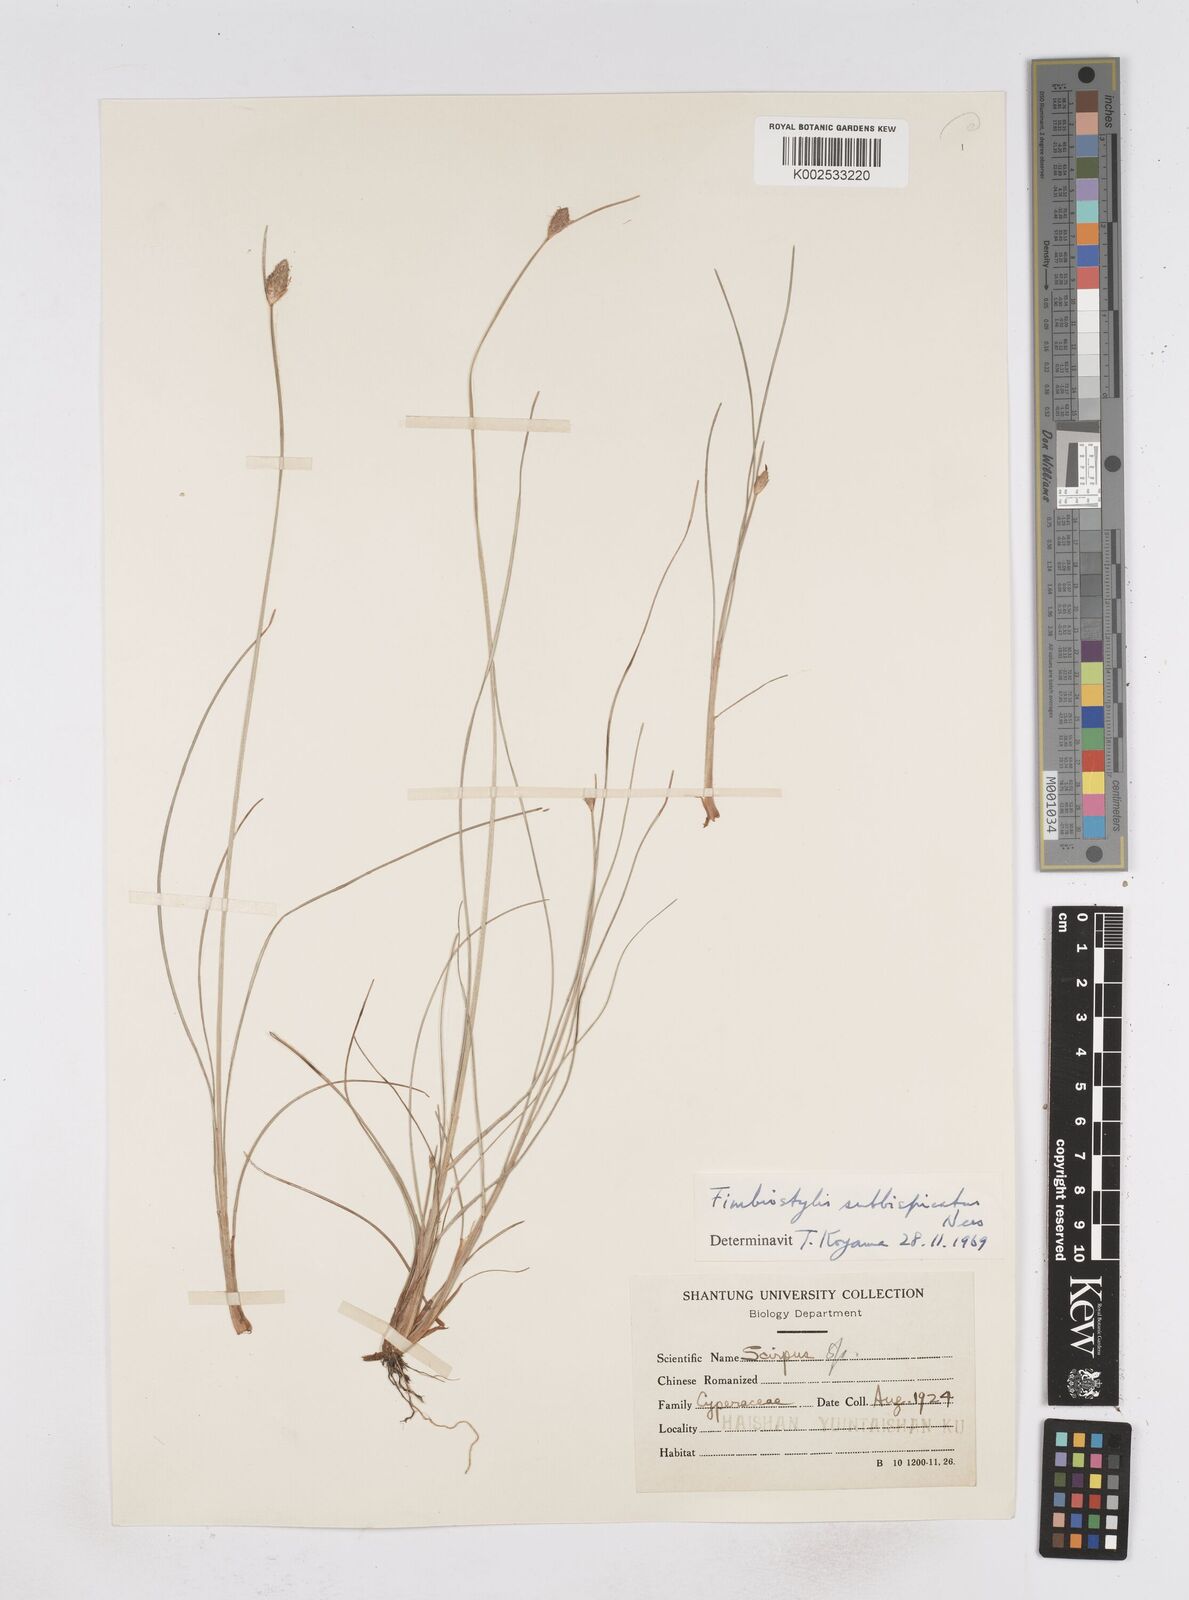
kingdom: Plantae
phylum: Tracheophyta
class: Liliopsida
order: Poales
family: Cyperaceae
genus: Fimbristylis
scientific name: Fimbristylis tristachya
